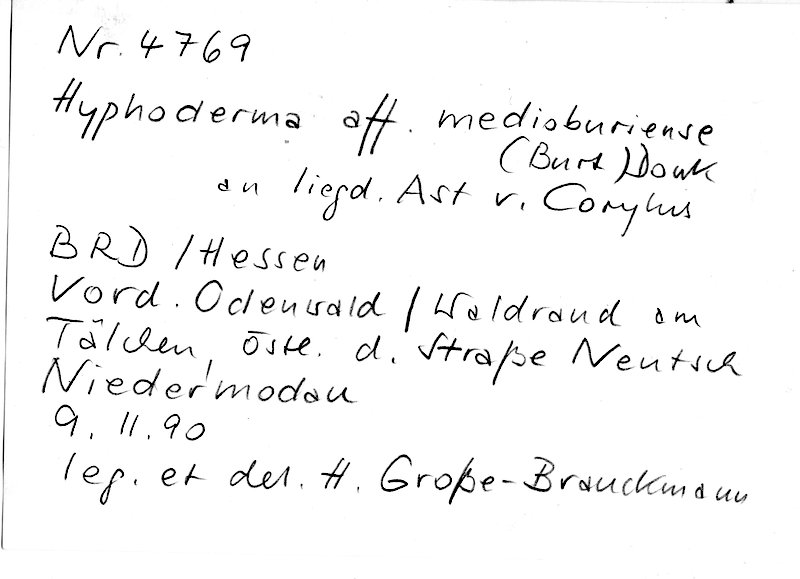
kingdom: Plantae
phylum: Tracheophyta
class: Magnoliopsida
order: Fagales
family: Betulaceae
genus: Corylus
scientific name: Corylus
